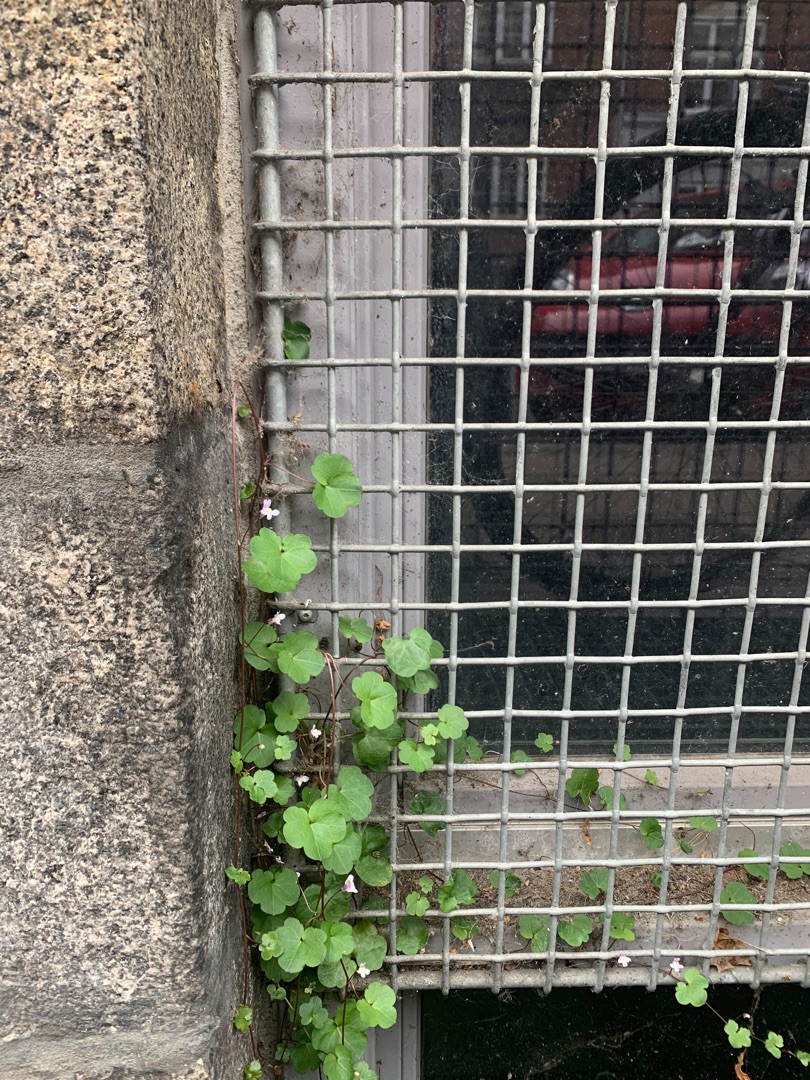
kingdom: Plantae
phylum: Tracheophyta
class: Magnoliopsida
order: Lamiales
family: Plantaginaceae
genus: Cymbalaria
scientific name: Cymbalaria muralis
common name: Vedbend-torskemund
